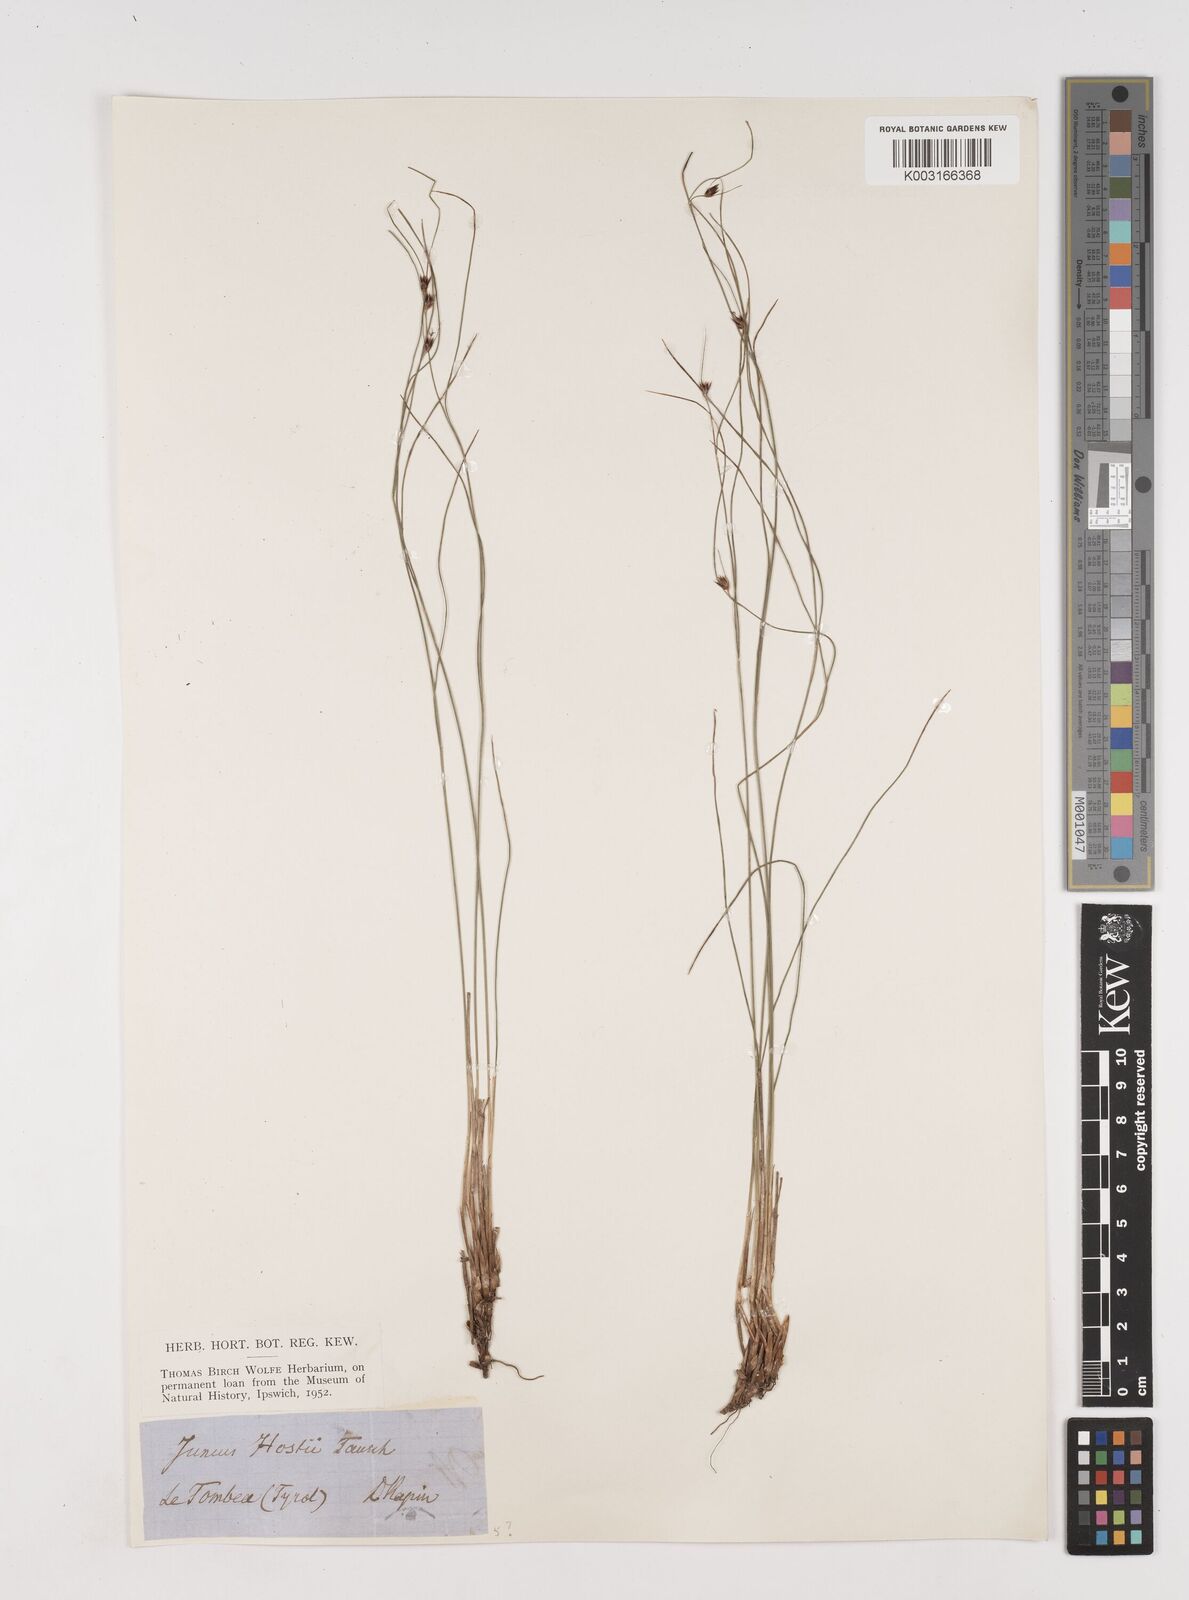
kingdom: Plantae
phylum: Tracheophyta
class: Liliopsida
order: Poales
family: Juncaceae
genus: Oreojuncus
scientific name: Oreojuncus trifidus
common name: Highland rush
